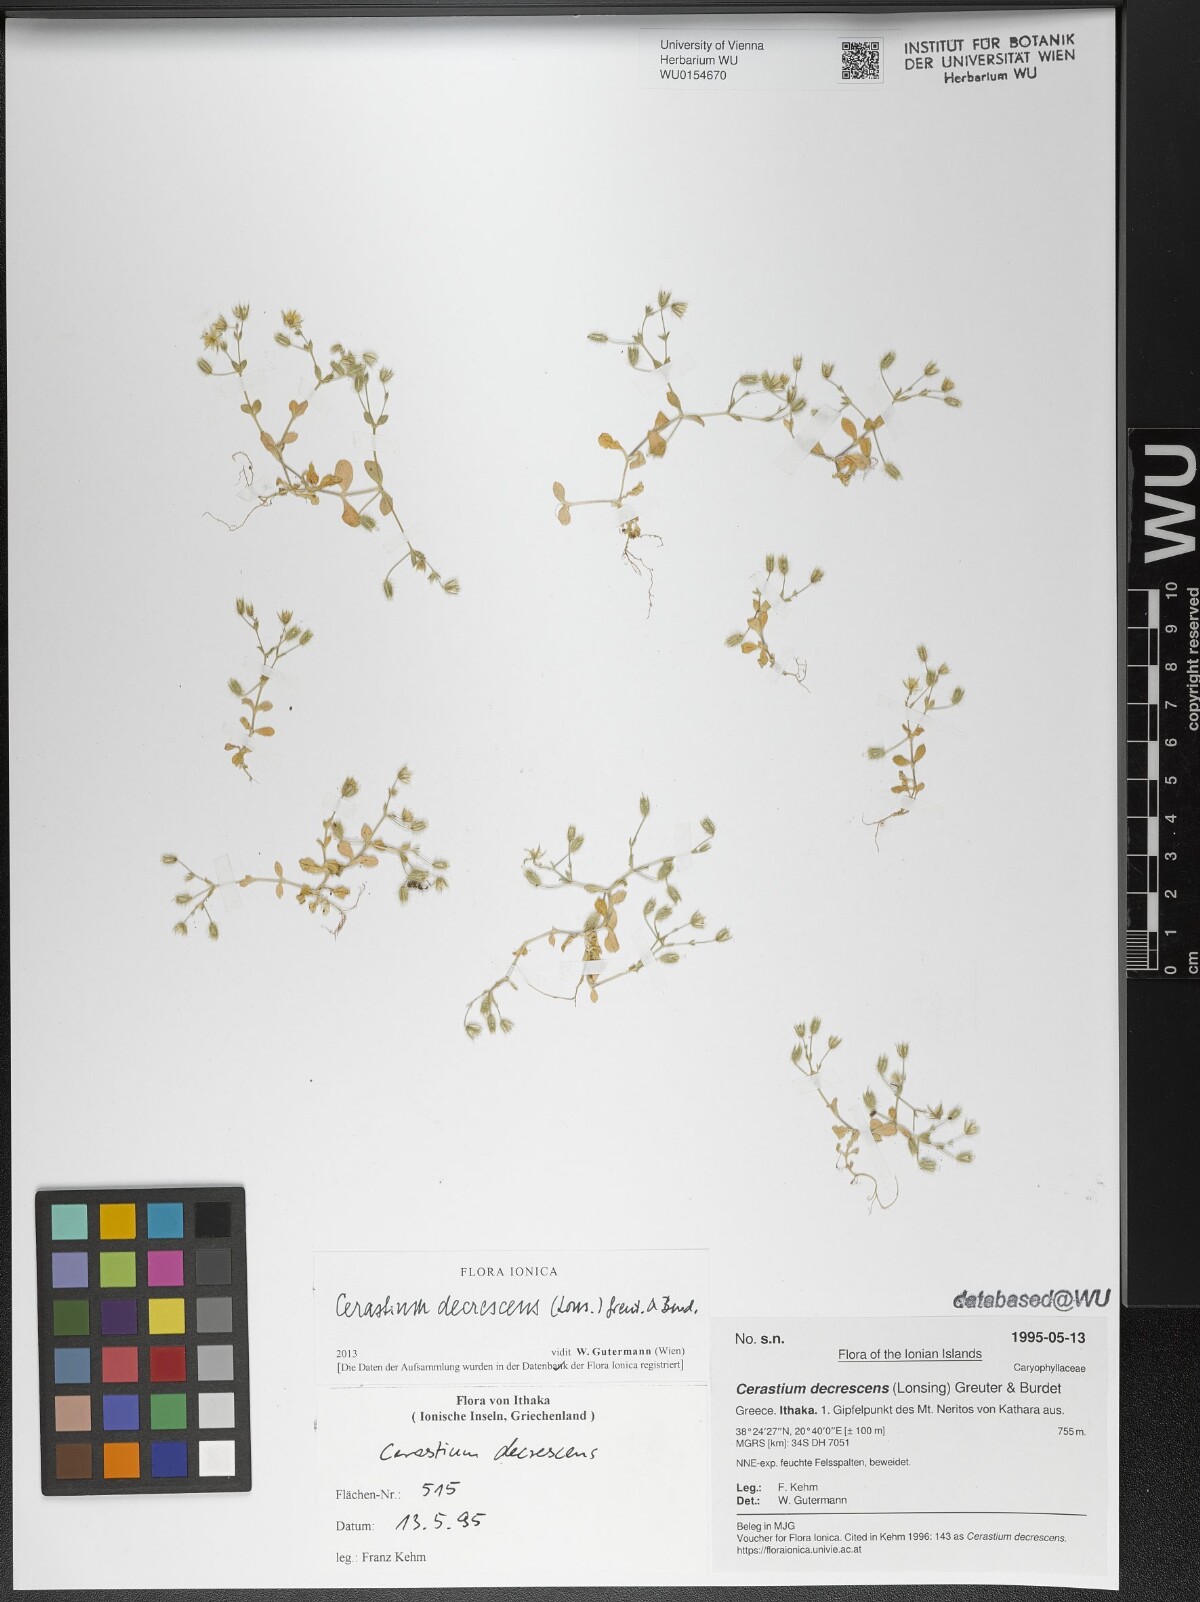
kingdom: Plantae
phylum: Tracheophyta
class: Magnoliopsida
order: Caryophyllales
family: Caryophyllaceae
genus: Cerastium
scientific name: Cerastium illyricum
